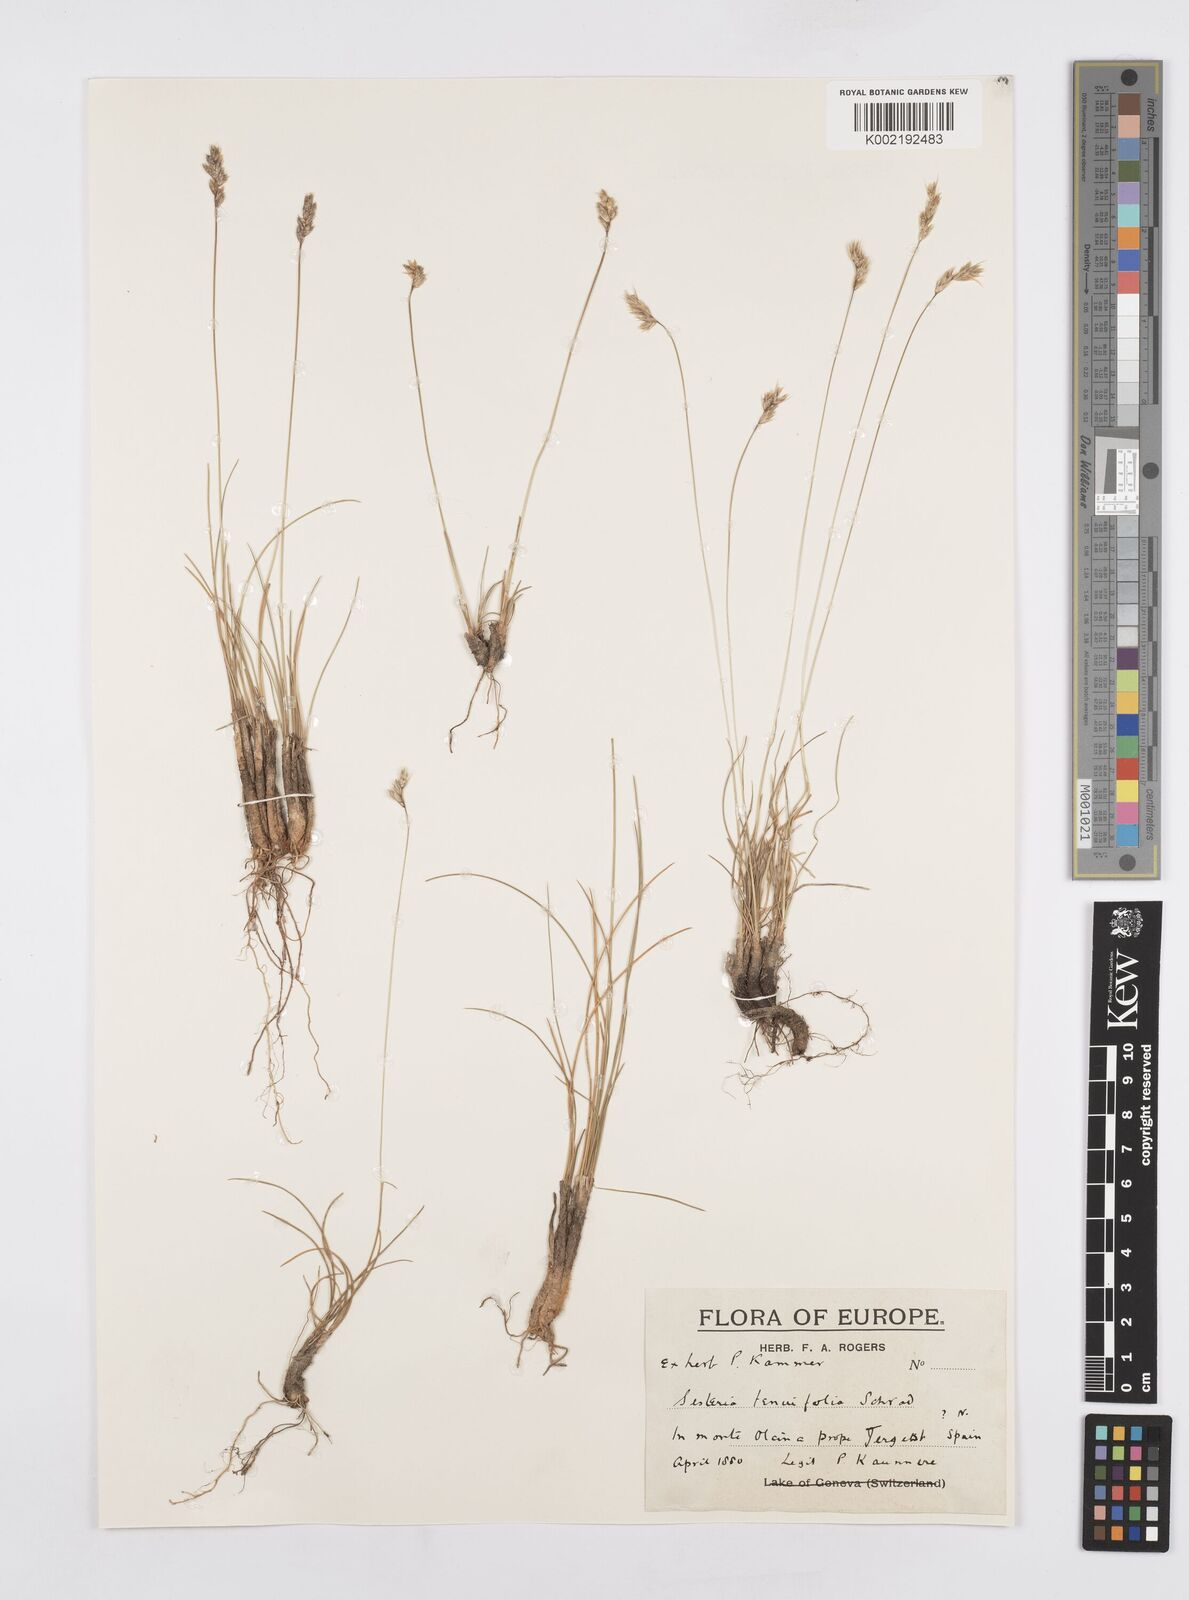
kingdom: Plantae
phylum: Tracheophyta
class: Liliopsida
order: Poales
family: Poaceae
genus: Sesleria
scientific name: Sesleria juncifolia
